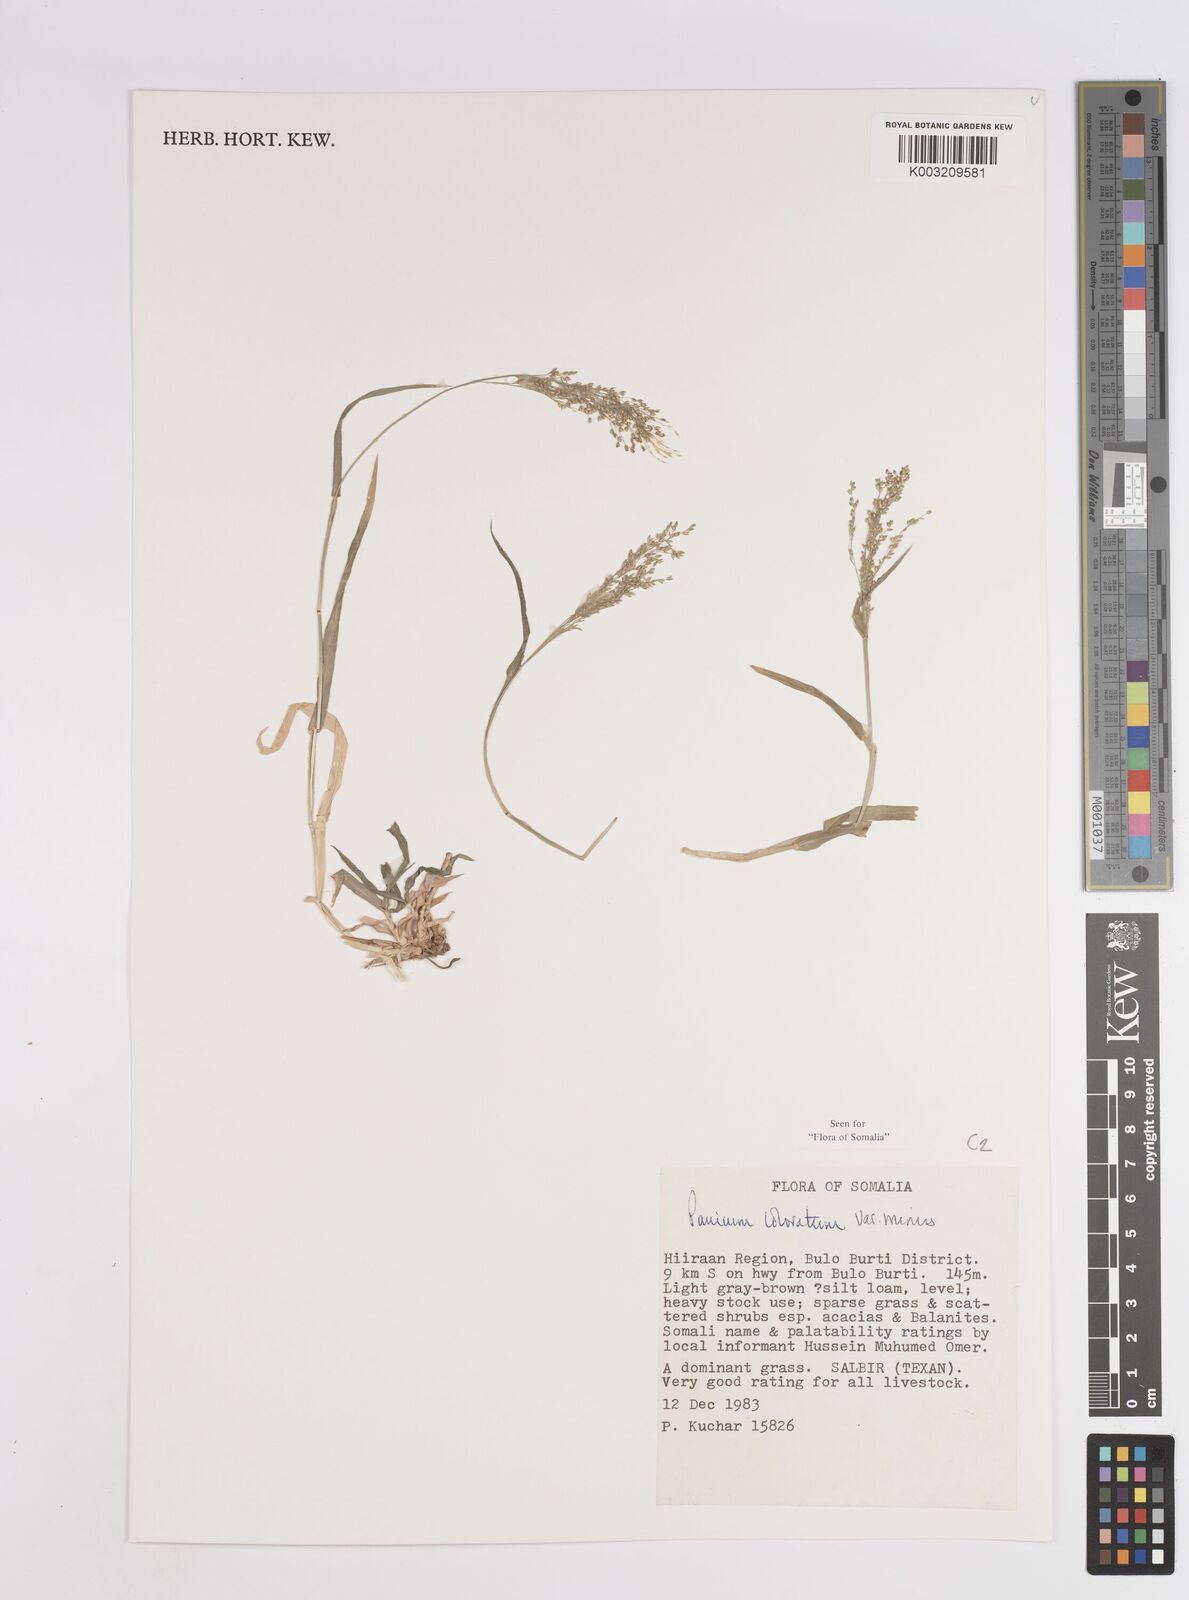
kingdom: Plantae
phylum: Tracheophyta
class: Liliopsida
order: Poales
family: Poaceae
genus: Panicum
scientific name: Panicum coloratum
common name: Kleingrass
